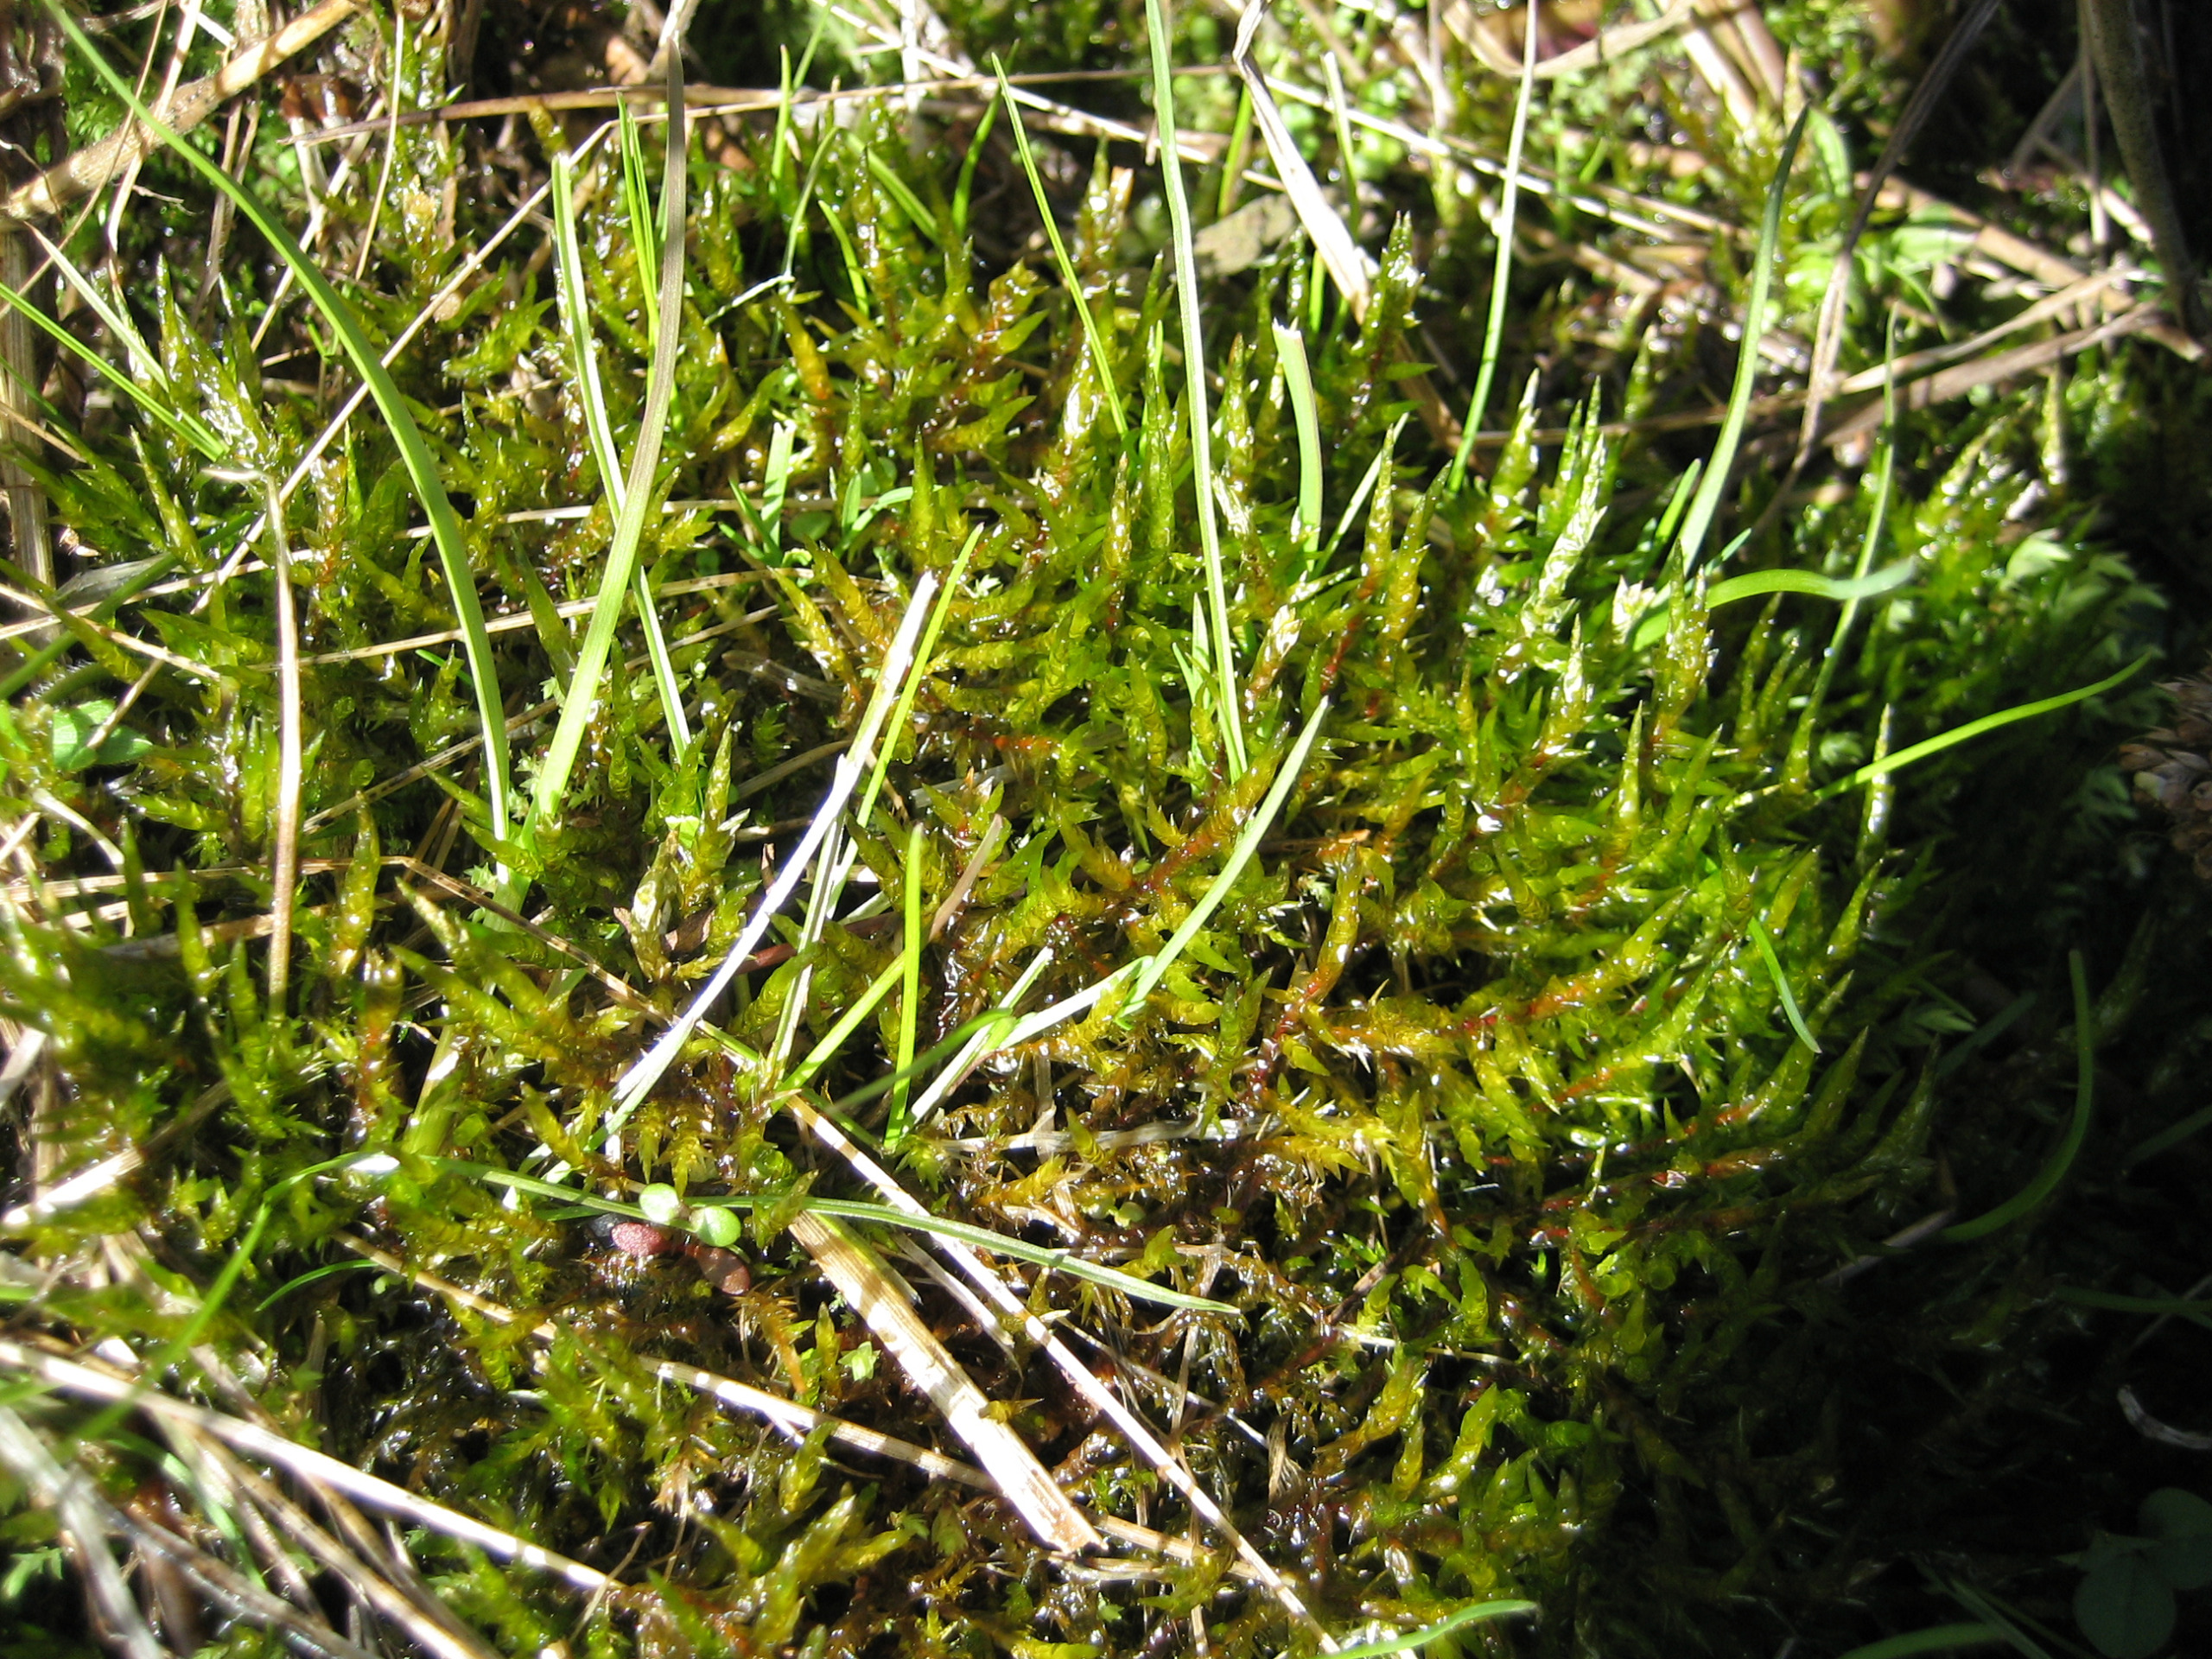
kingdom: Plantae
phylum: Bryophyta
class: Bryopsida
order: Hypnales
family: Pylaisiaceae
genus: Calliergonella
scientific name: Calliergonella cuspidata
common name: Spids spydmos
